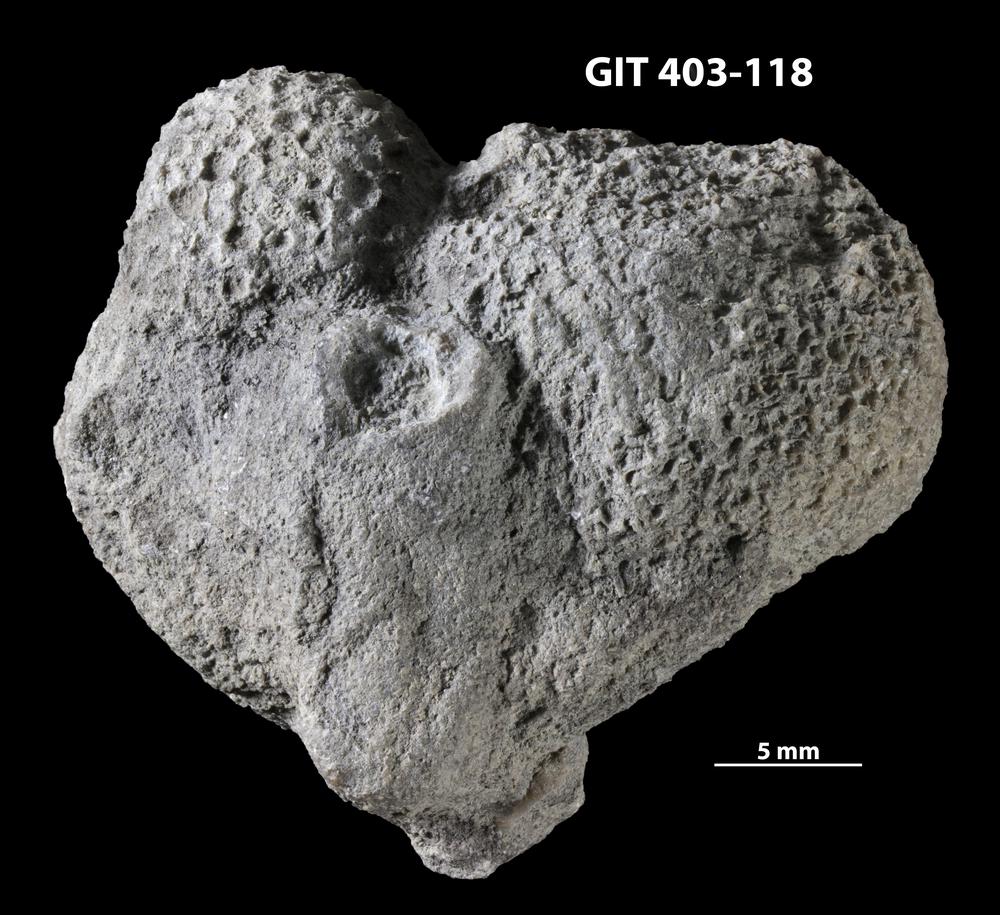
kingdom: Animalia
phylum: Cnidaria
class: Anthozoa
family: Favositidae
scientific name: Favositidae
